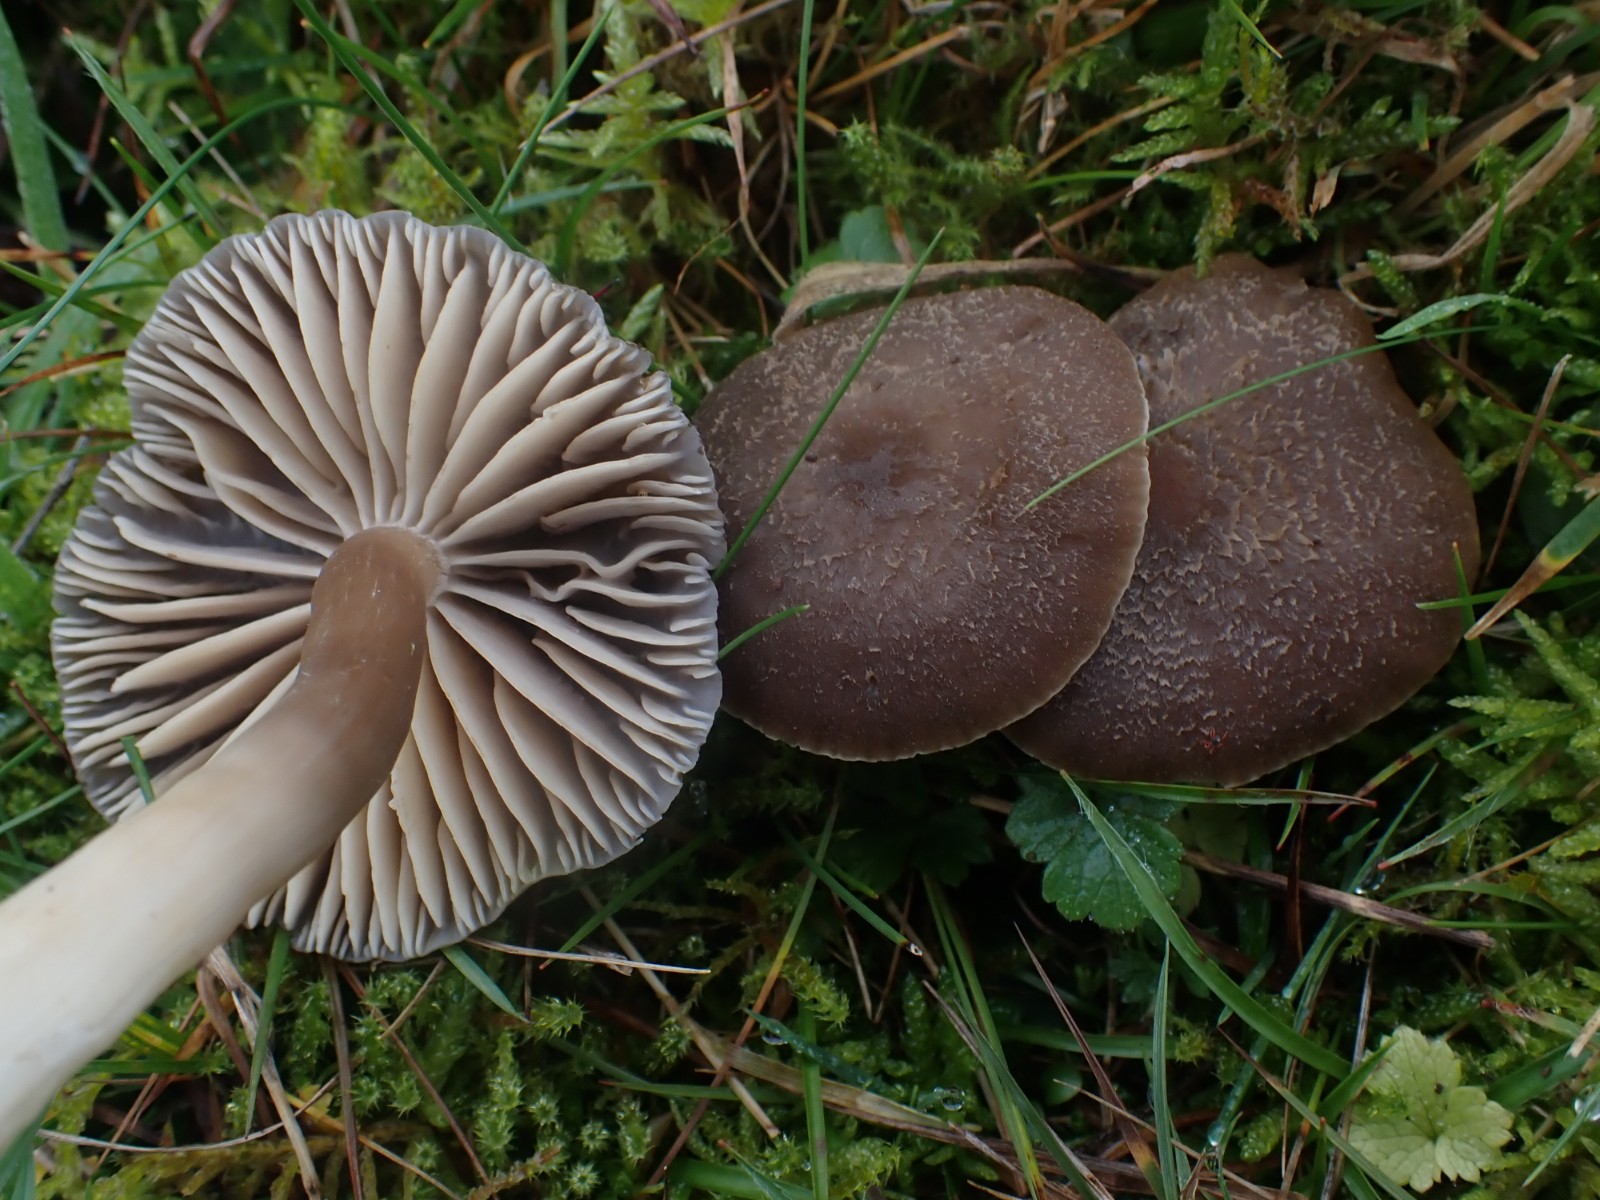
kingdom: Fungi
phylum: Basidiomycota
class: Agaricomycetes
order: Agaricales
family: Hygrophoraceae
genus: Neohygrocybe
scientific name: Neohygrocybe nitrata
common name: stinkende vokshat
